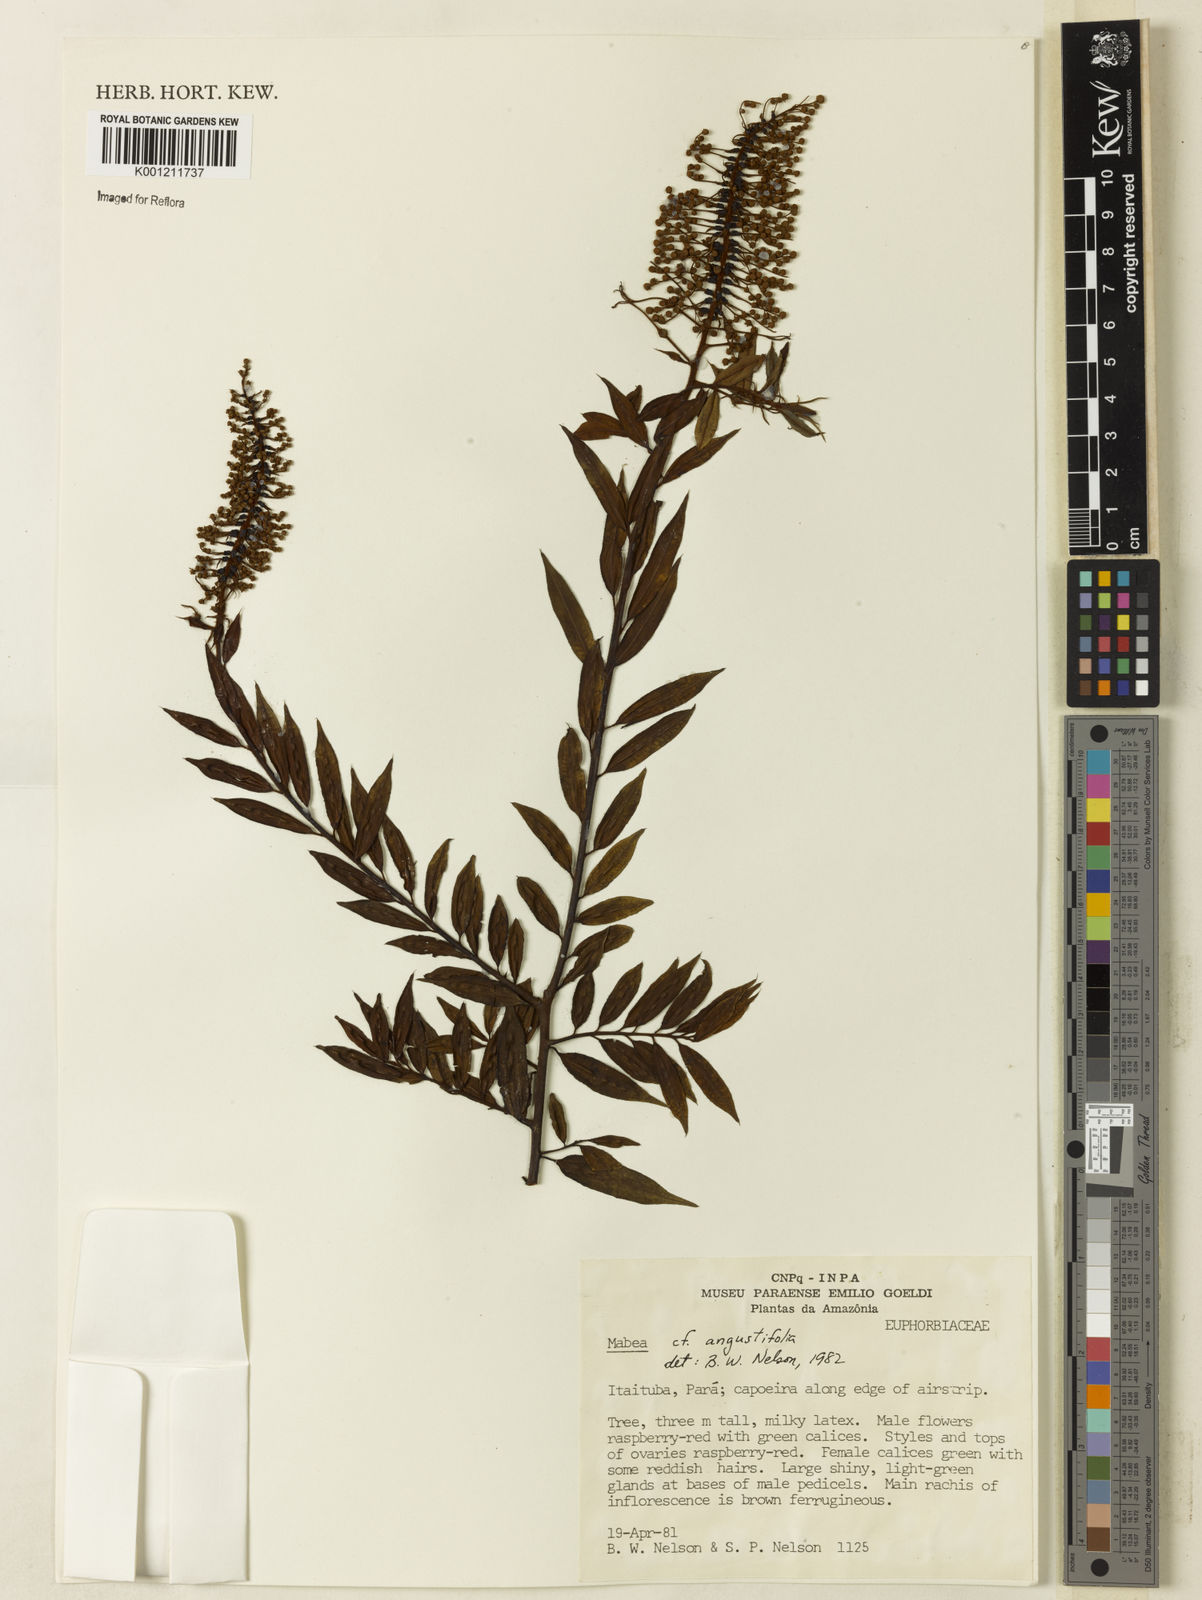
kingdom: Plantae
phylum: Tracheophyta
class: Magnoliopsida
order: Malpighiales
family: Euphorbiaceae
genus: Mabea
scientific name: Mabea angustifolia
